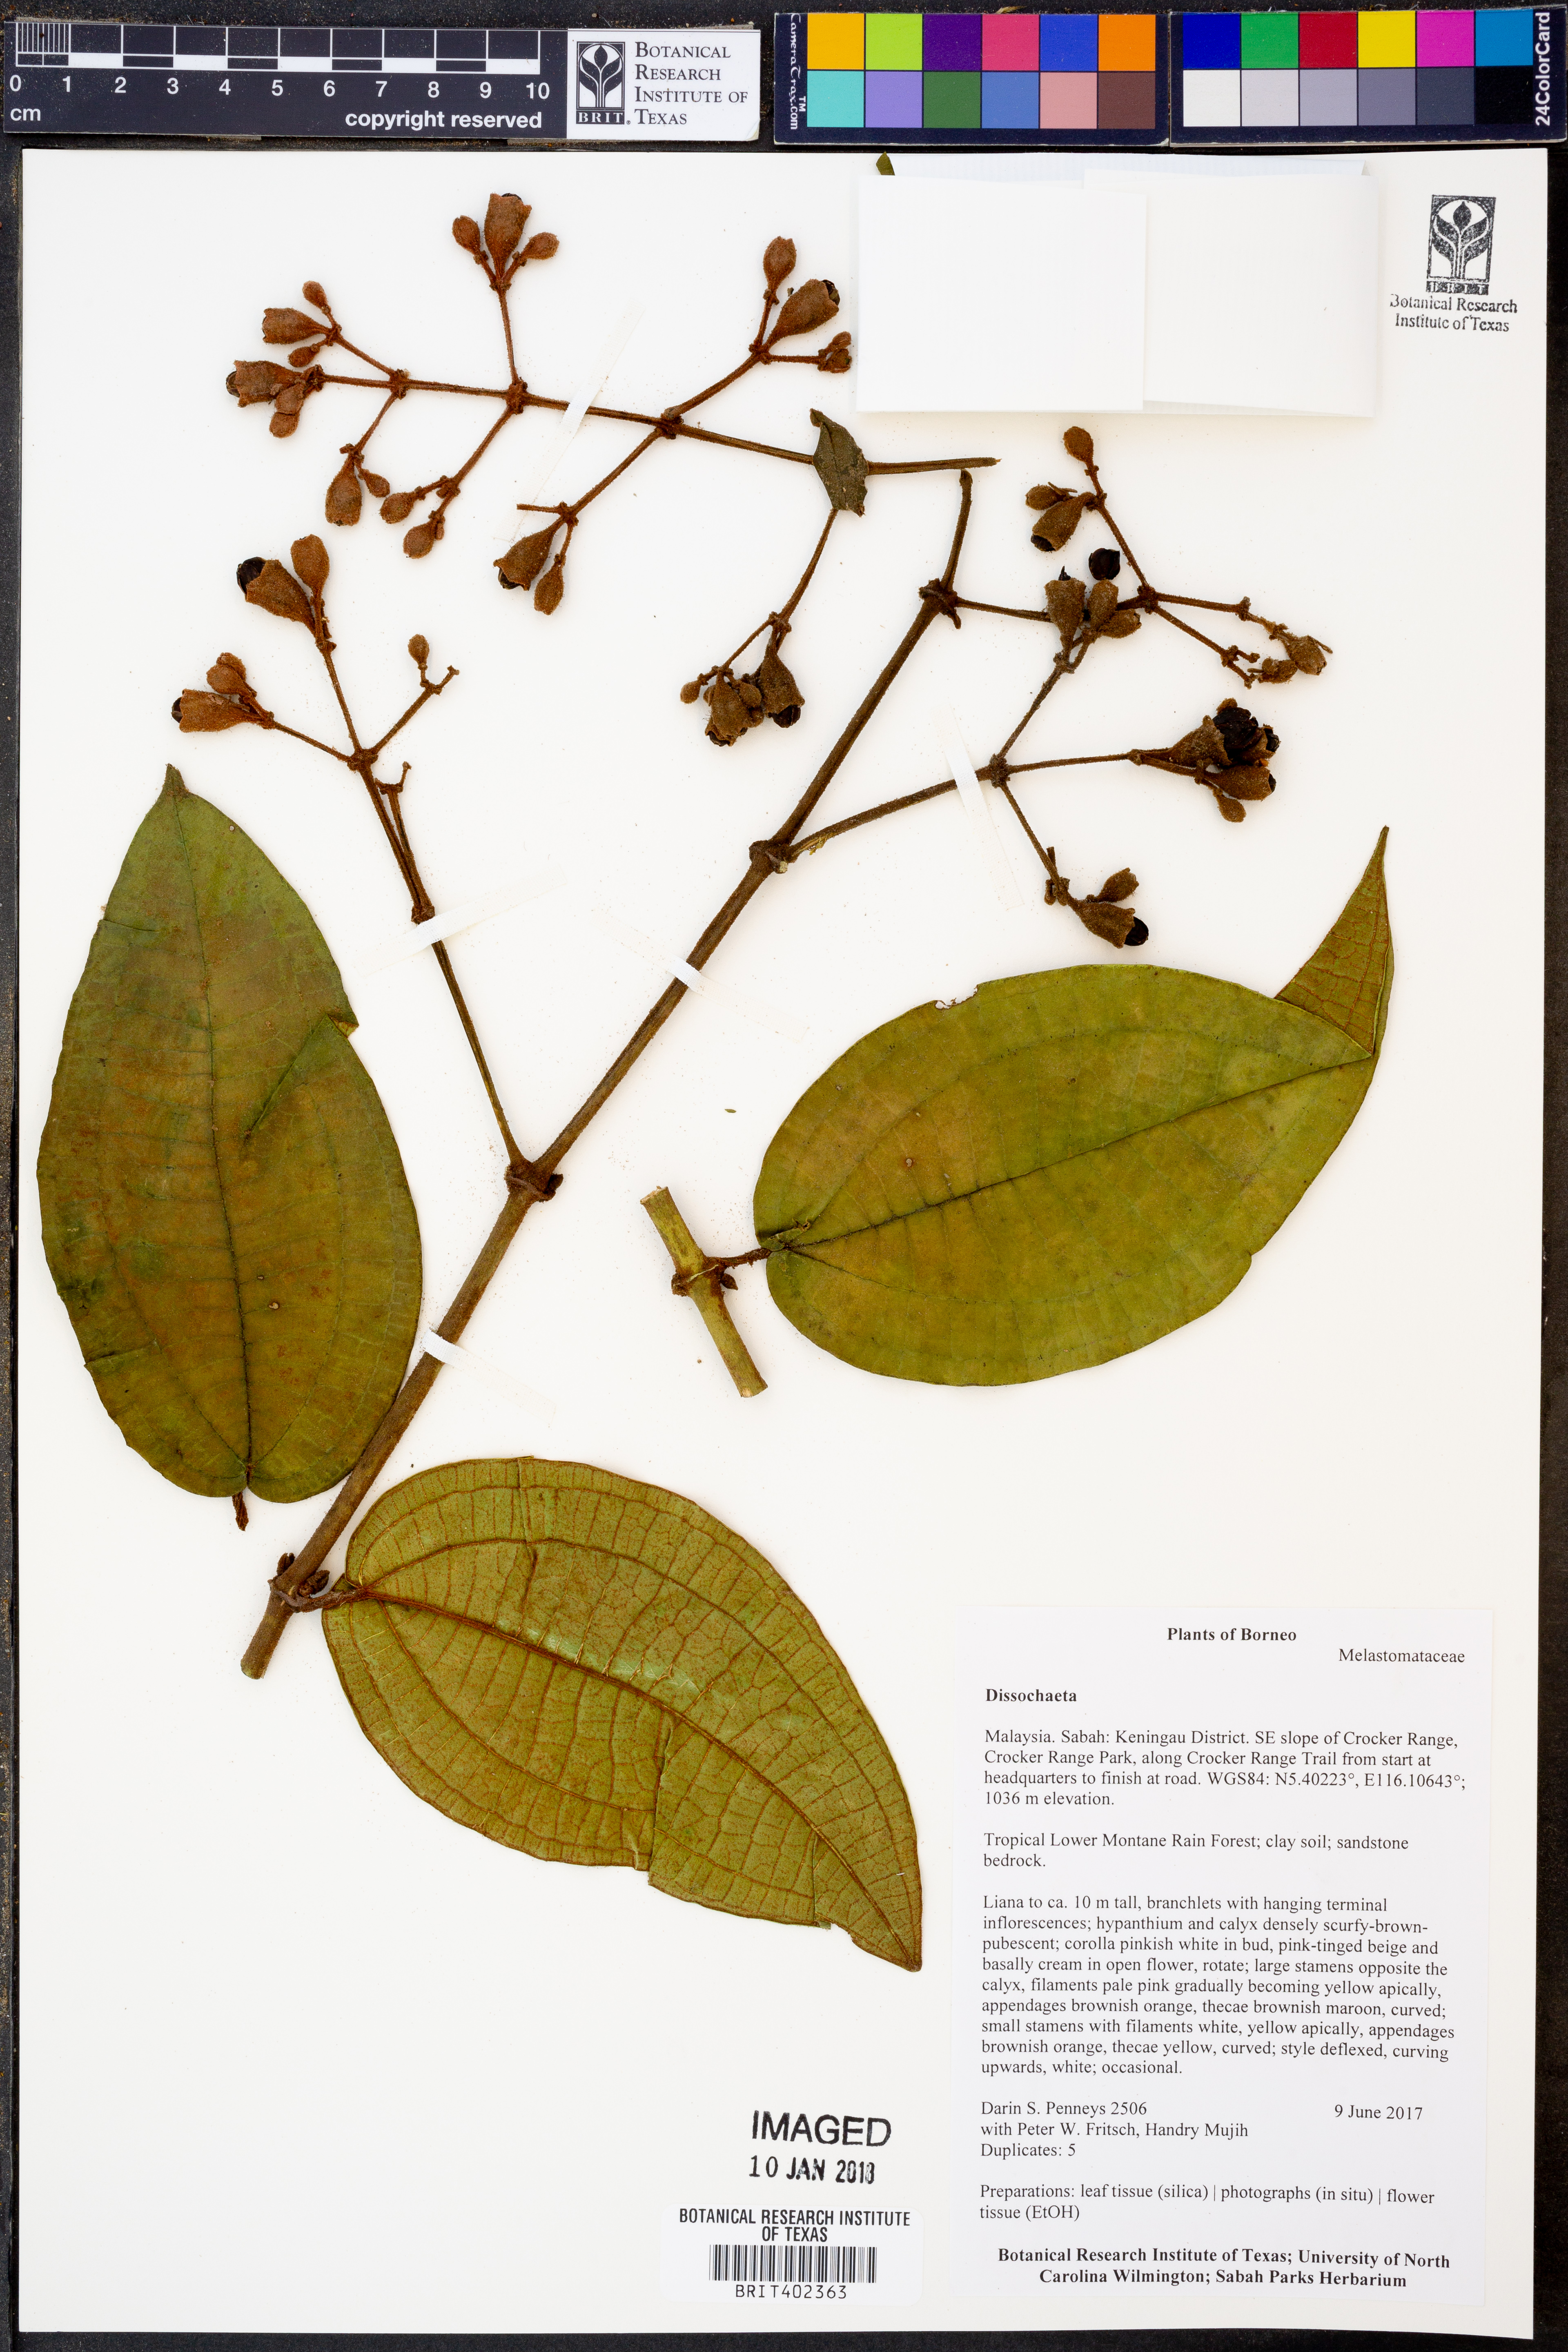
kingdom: Plantae
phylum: Tracheophyta
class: Magnoliopsida
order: Myrtales
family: Melastomataceae
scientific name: Melastomataceae
